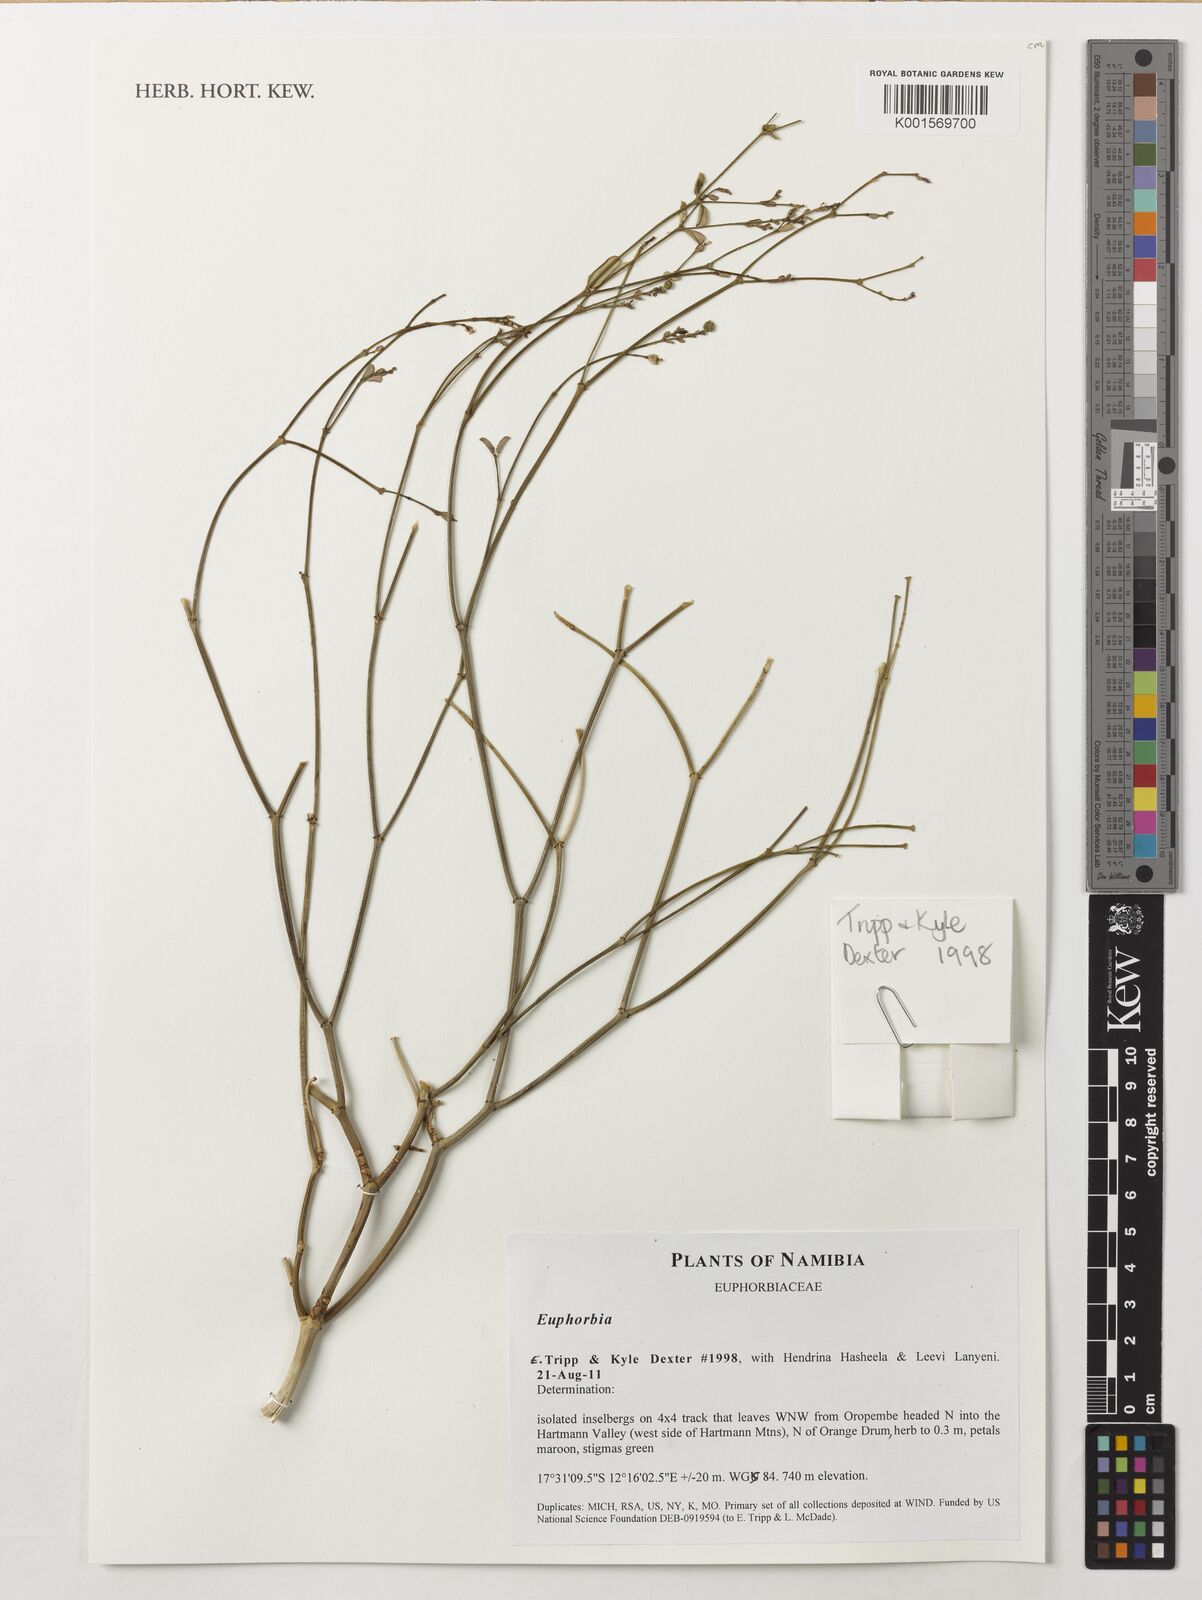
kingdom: Plantae
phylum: Tracheophyta
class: Magnoliopsida
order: Malpighiales
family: Euphorbiaceae
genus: Euphorbia
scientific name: Euphorbia
